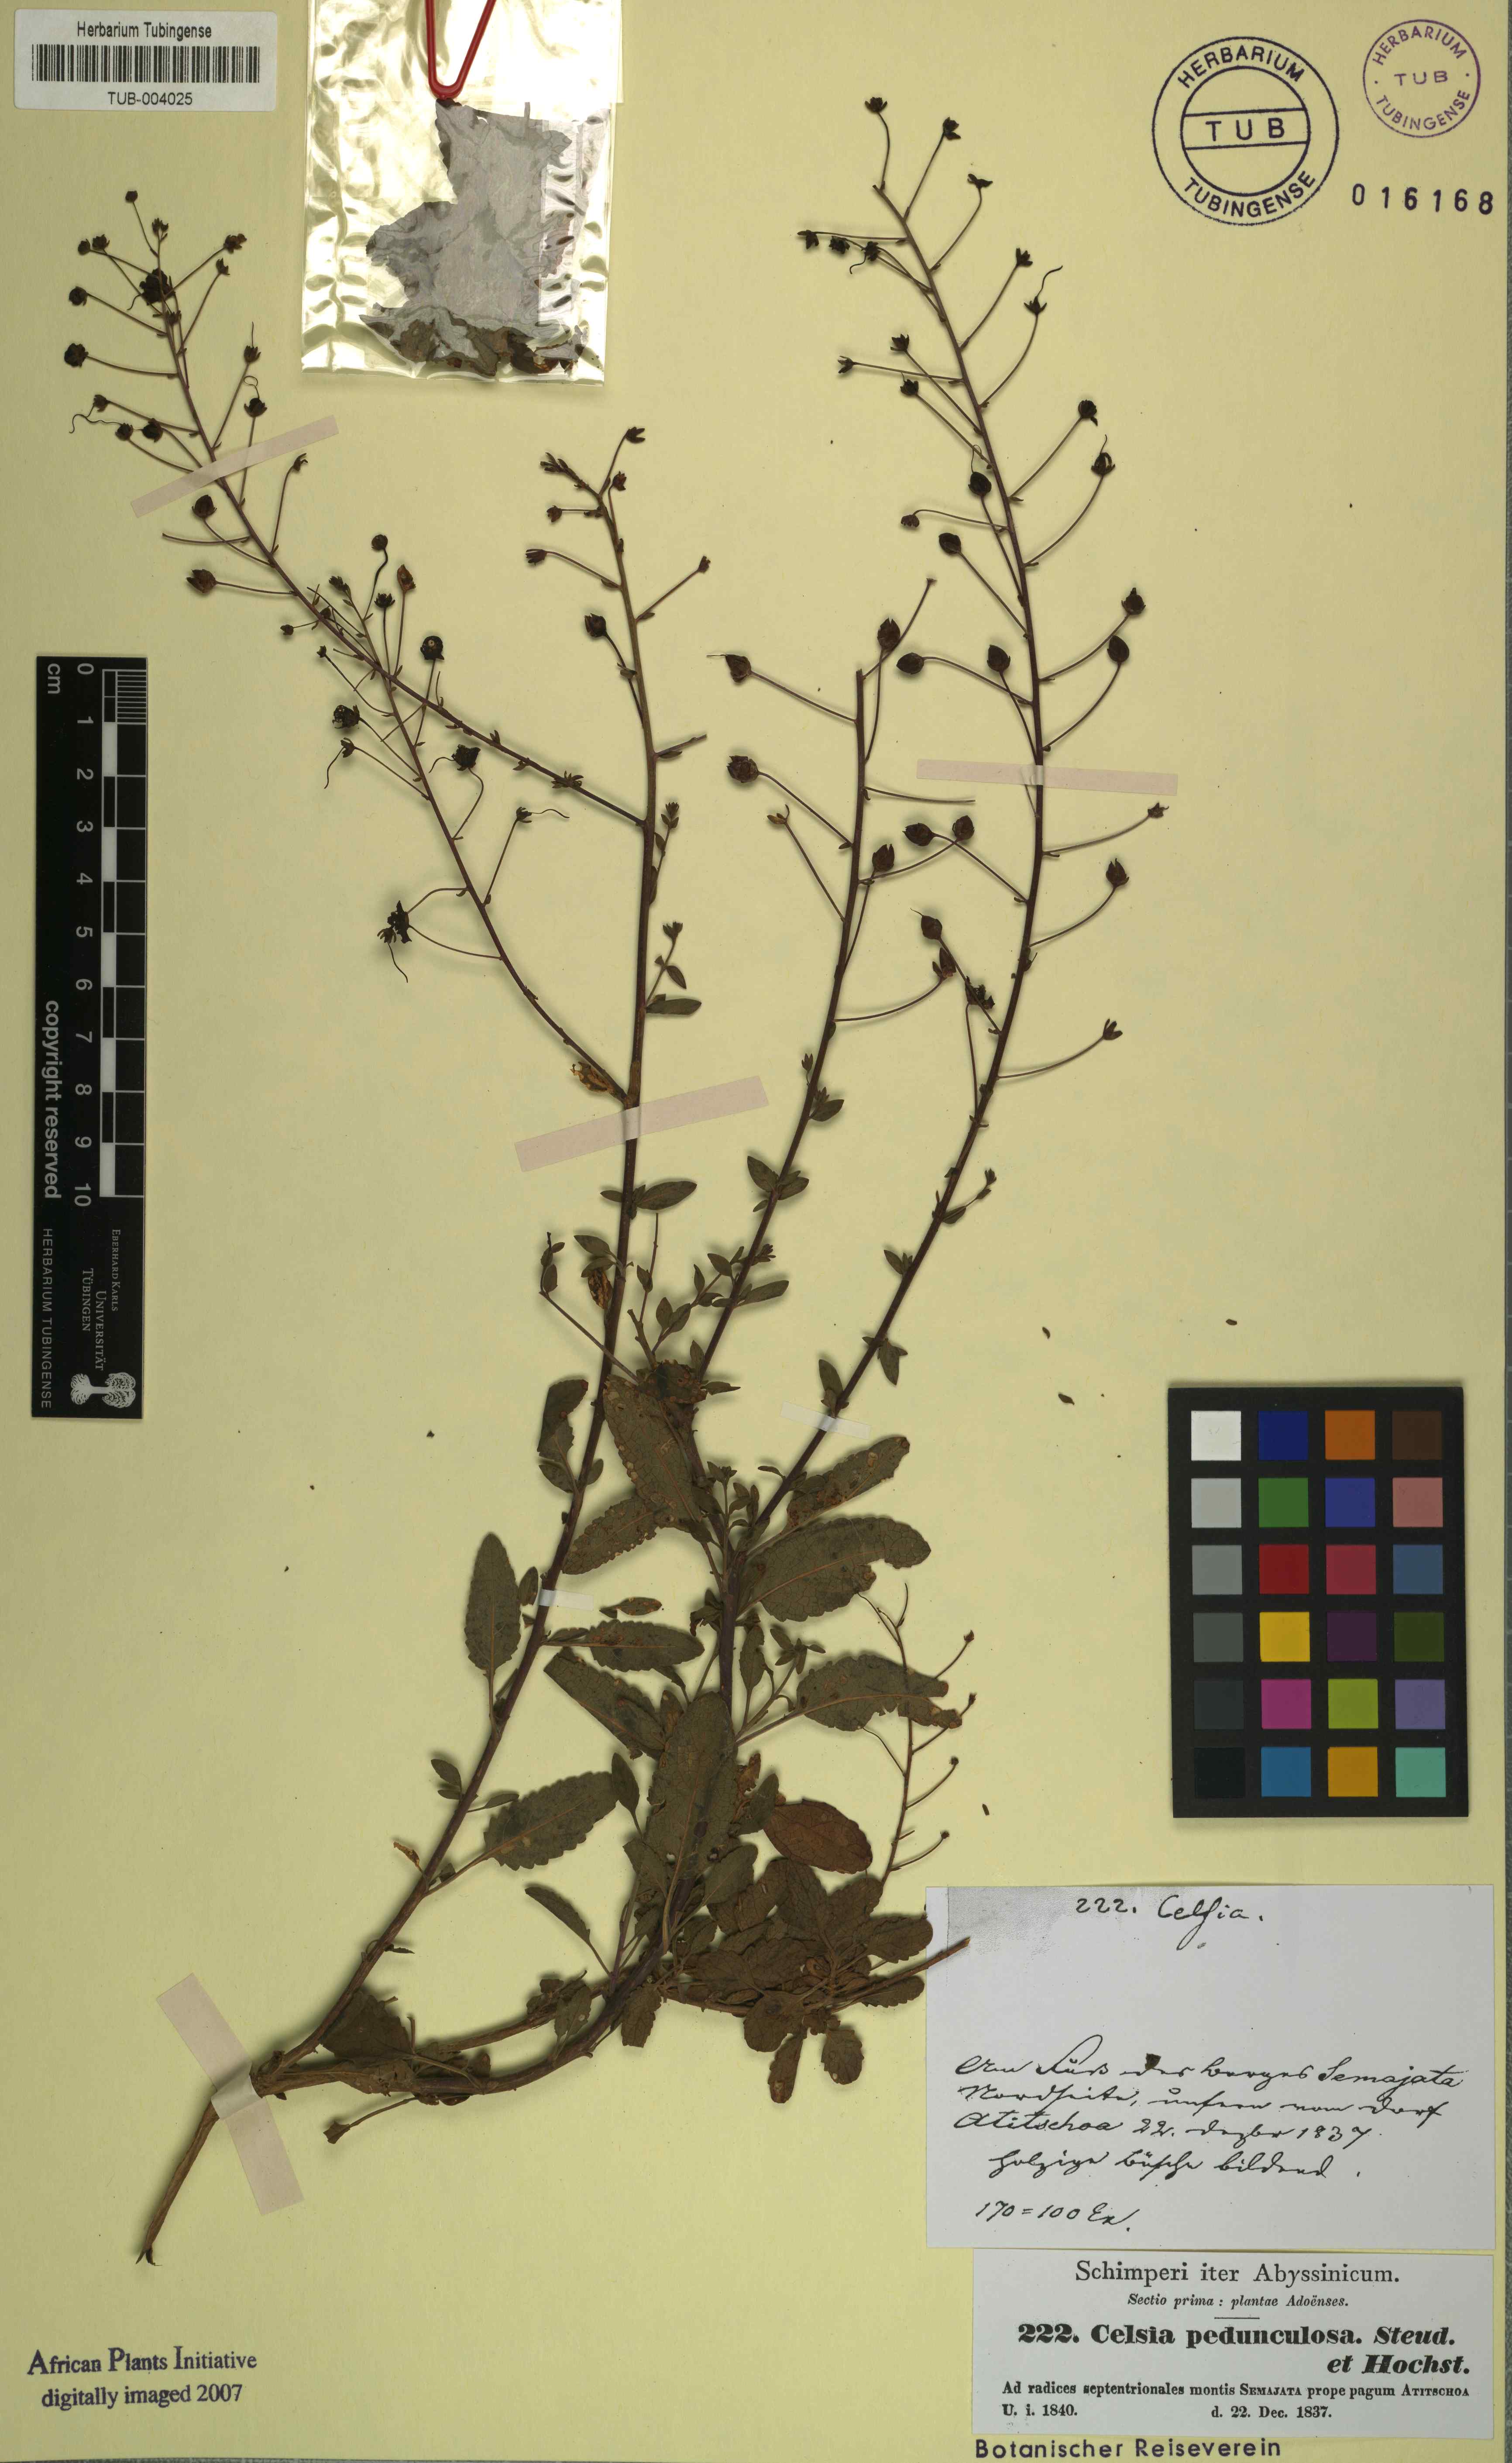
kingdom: Plantae
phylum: Tracheophyta
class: Magnoliopsida
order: Lamiales
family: Scrophulariaceae
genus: Verbascum
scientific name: Verbascum pedunculosum
